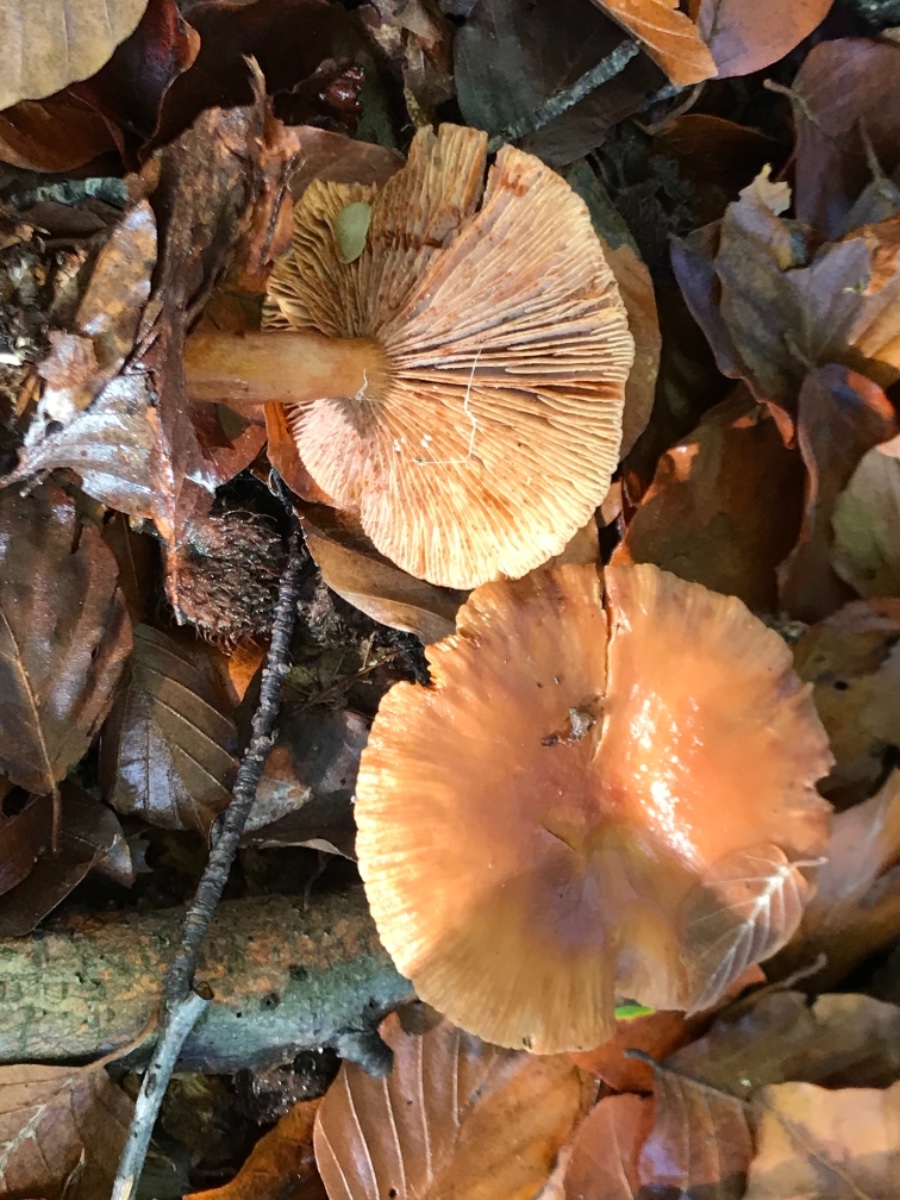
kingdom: Fungi
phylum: Basidiomycota
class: Agaricomycetes
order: Russulales
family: Russulaceae
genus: Lactarius
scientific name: Lactarius
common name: mælkehat
